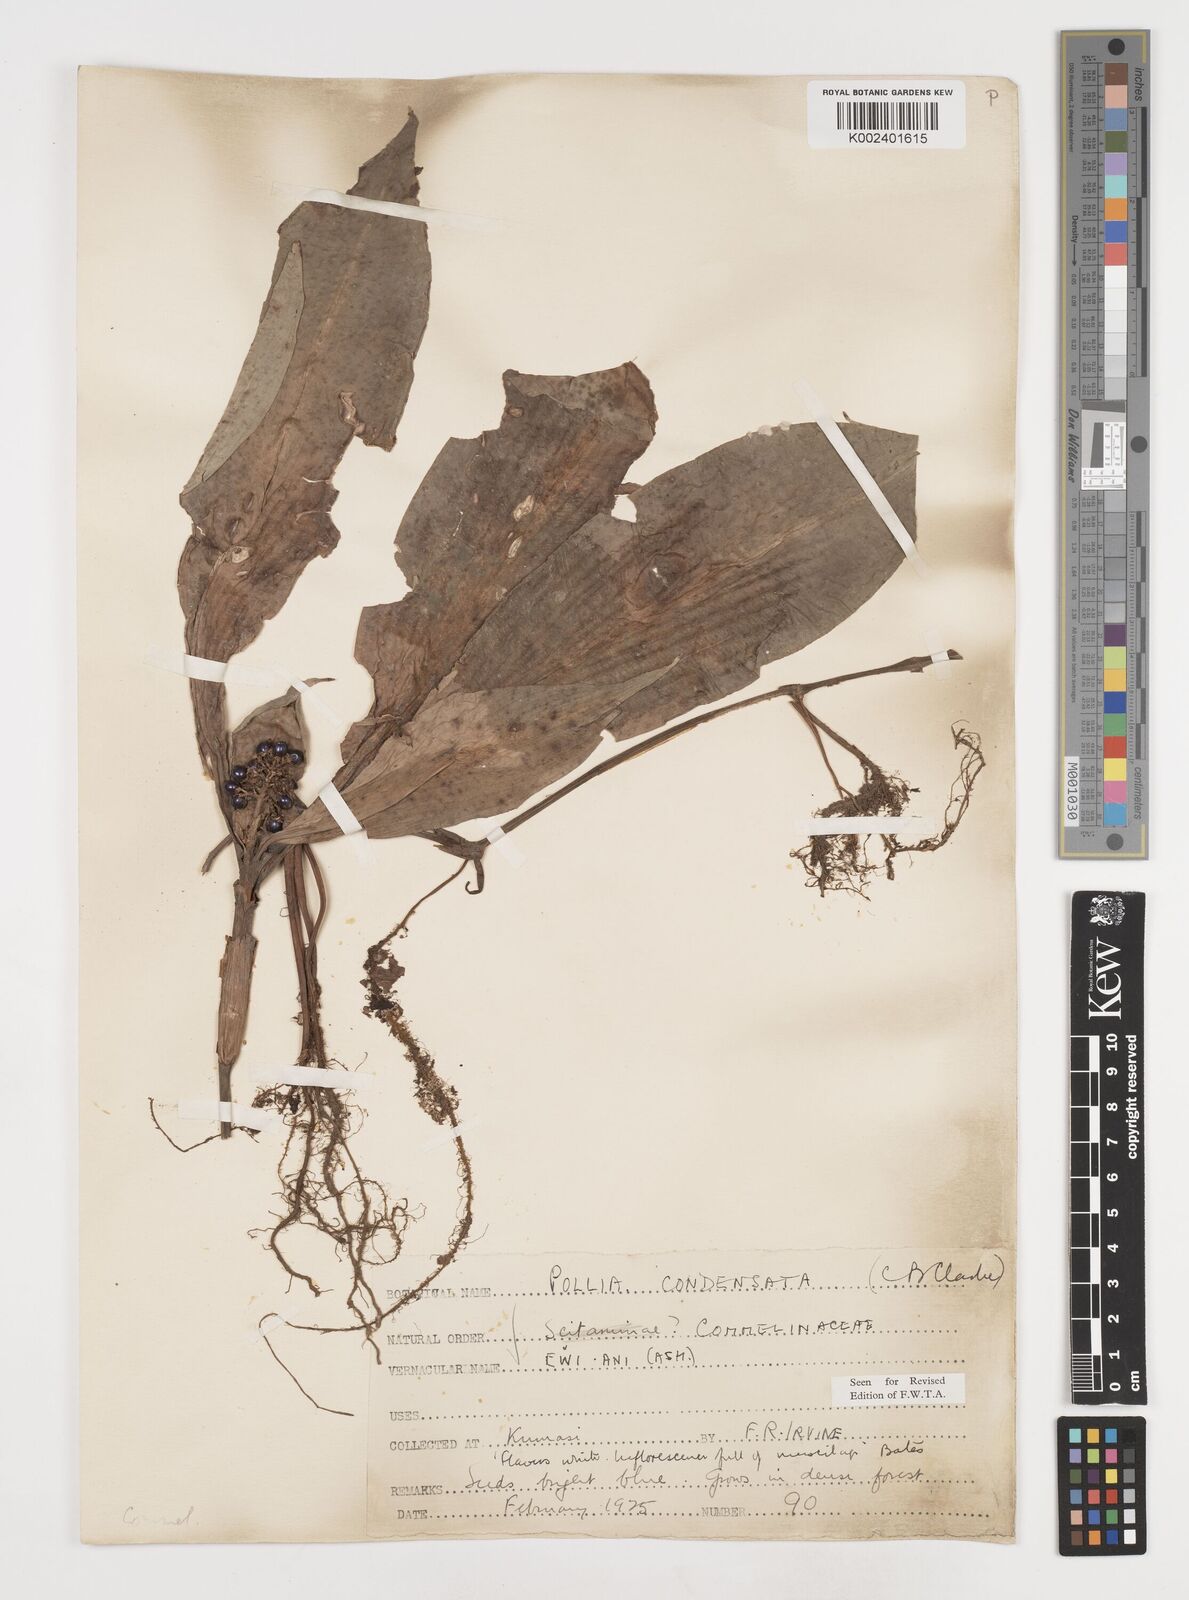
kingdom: Plantae
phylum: Tracheophyta
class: Liliopsida
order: Commelinales
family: Commelinaceae
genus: Pollia
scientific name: Pollia condensata
